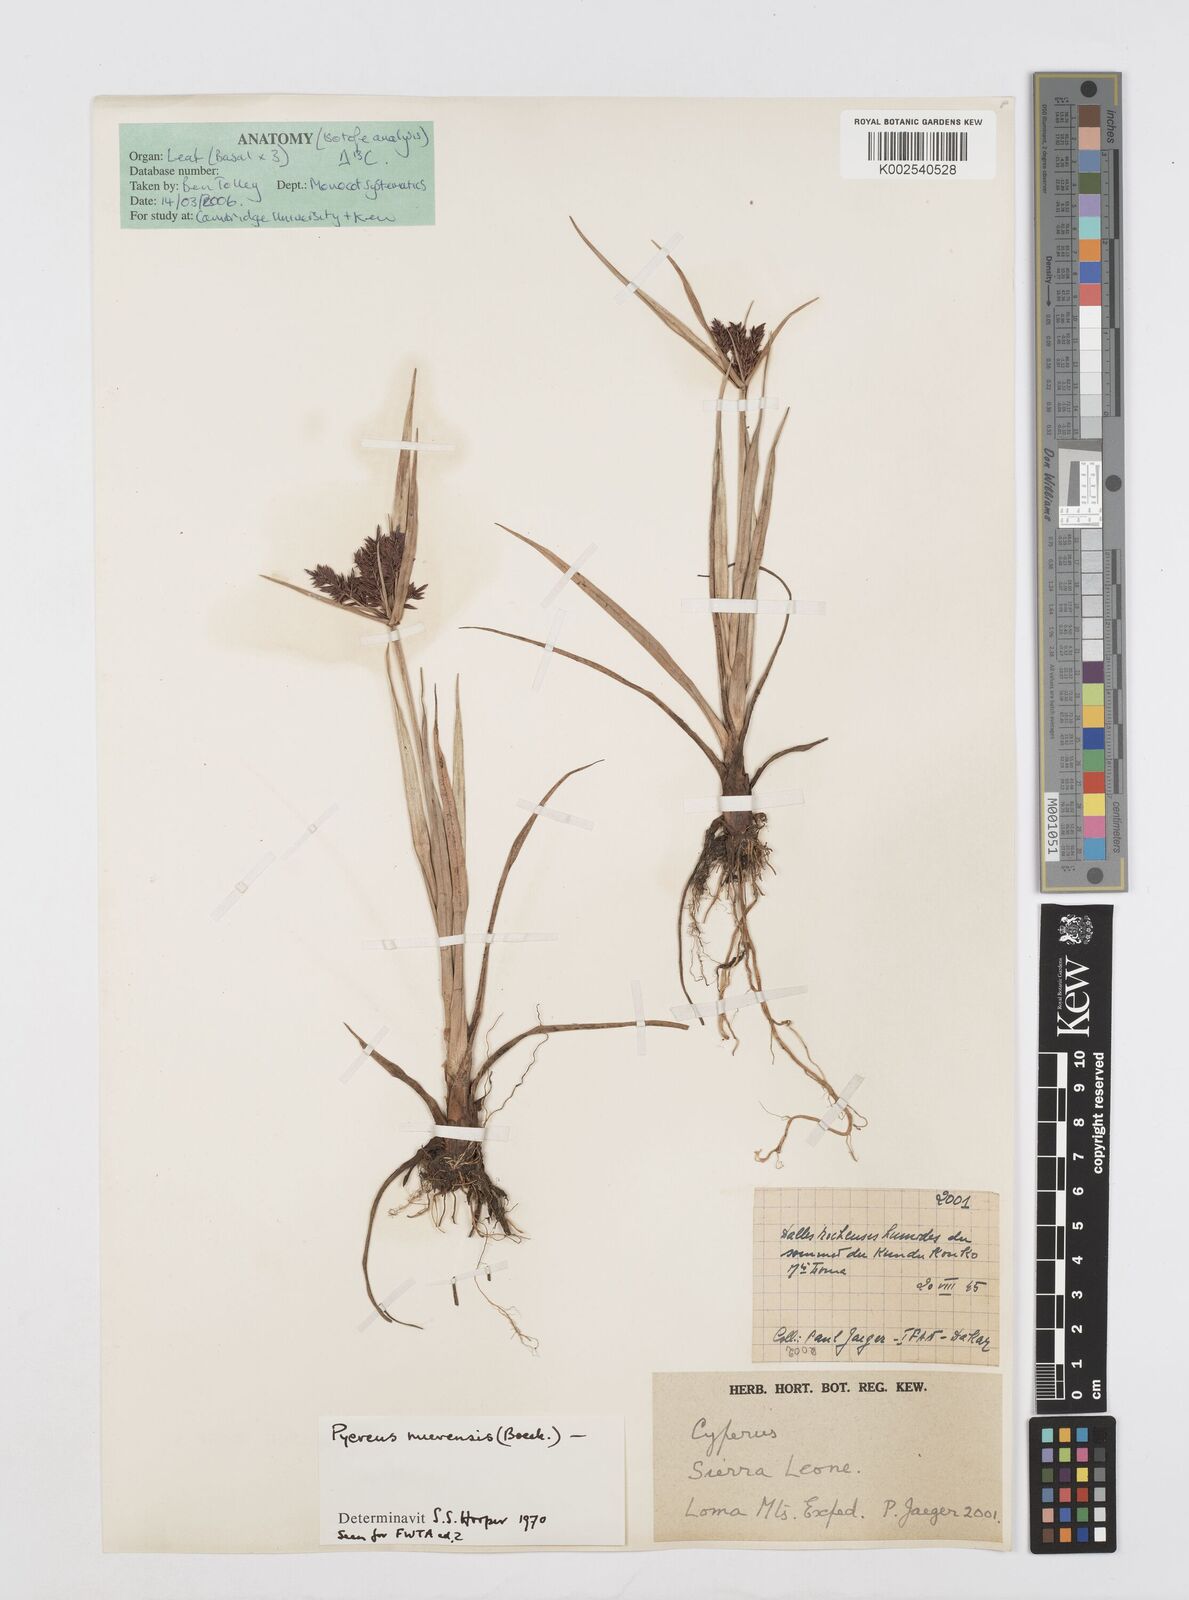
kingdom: Plantae
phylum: Tracheophyta
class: Liliopsida
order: Poales
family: Cyperaceae
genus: Cyperus
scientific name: Cyperus nuerensis
